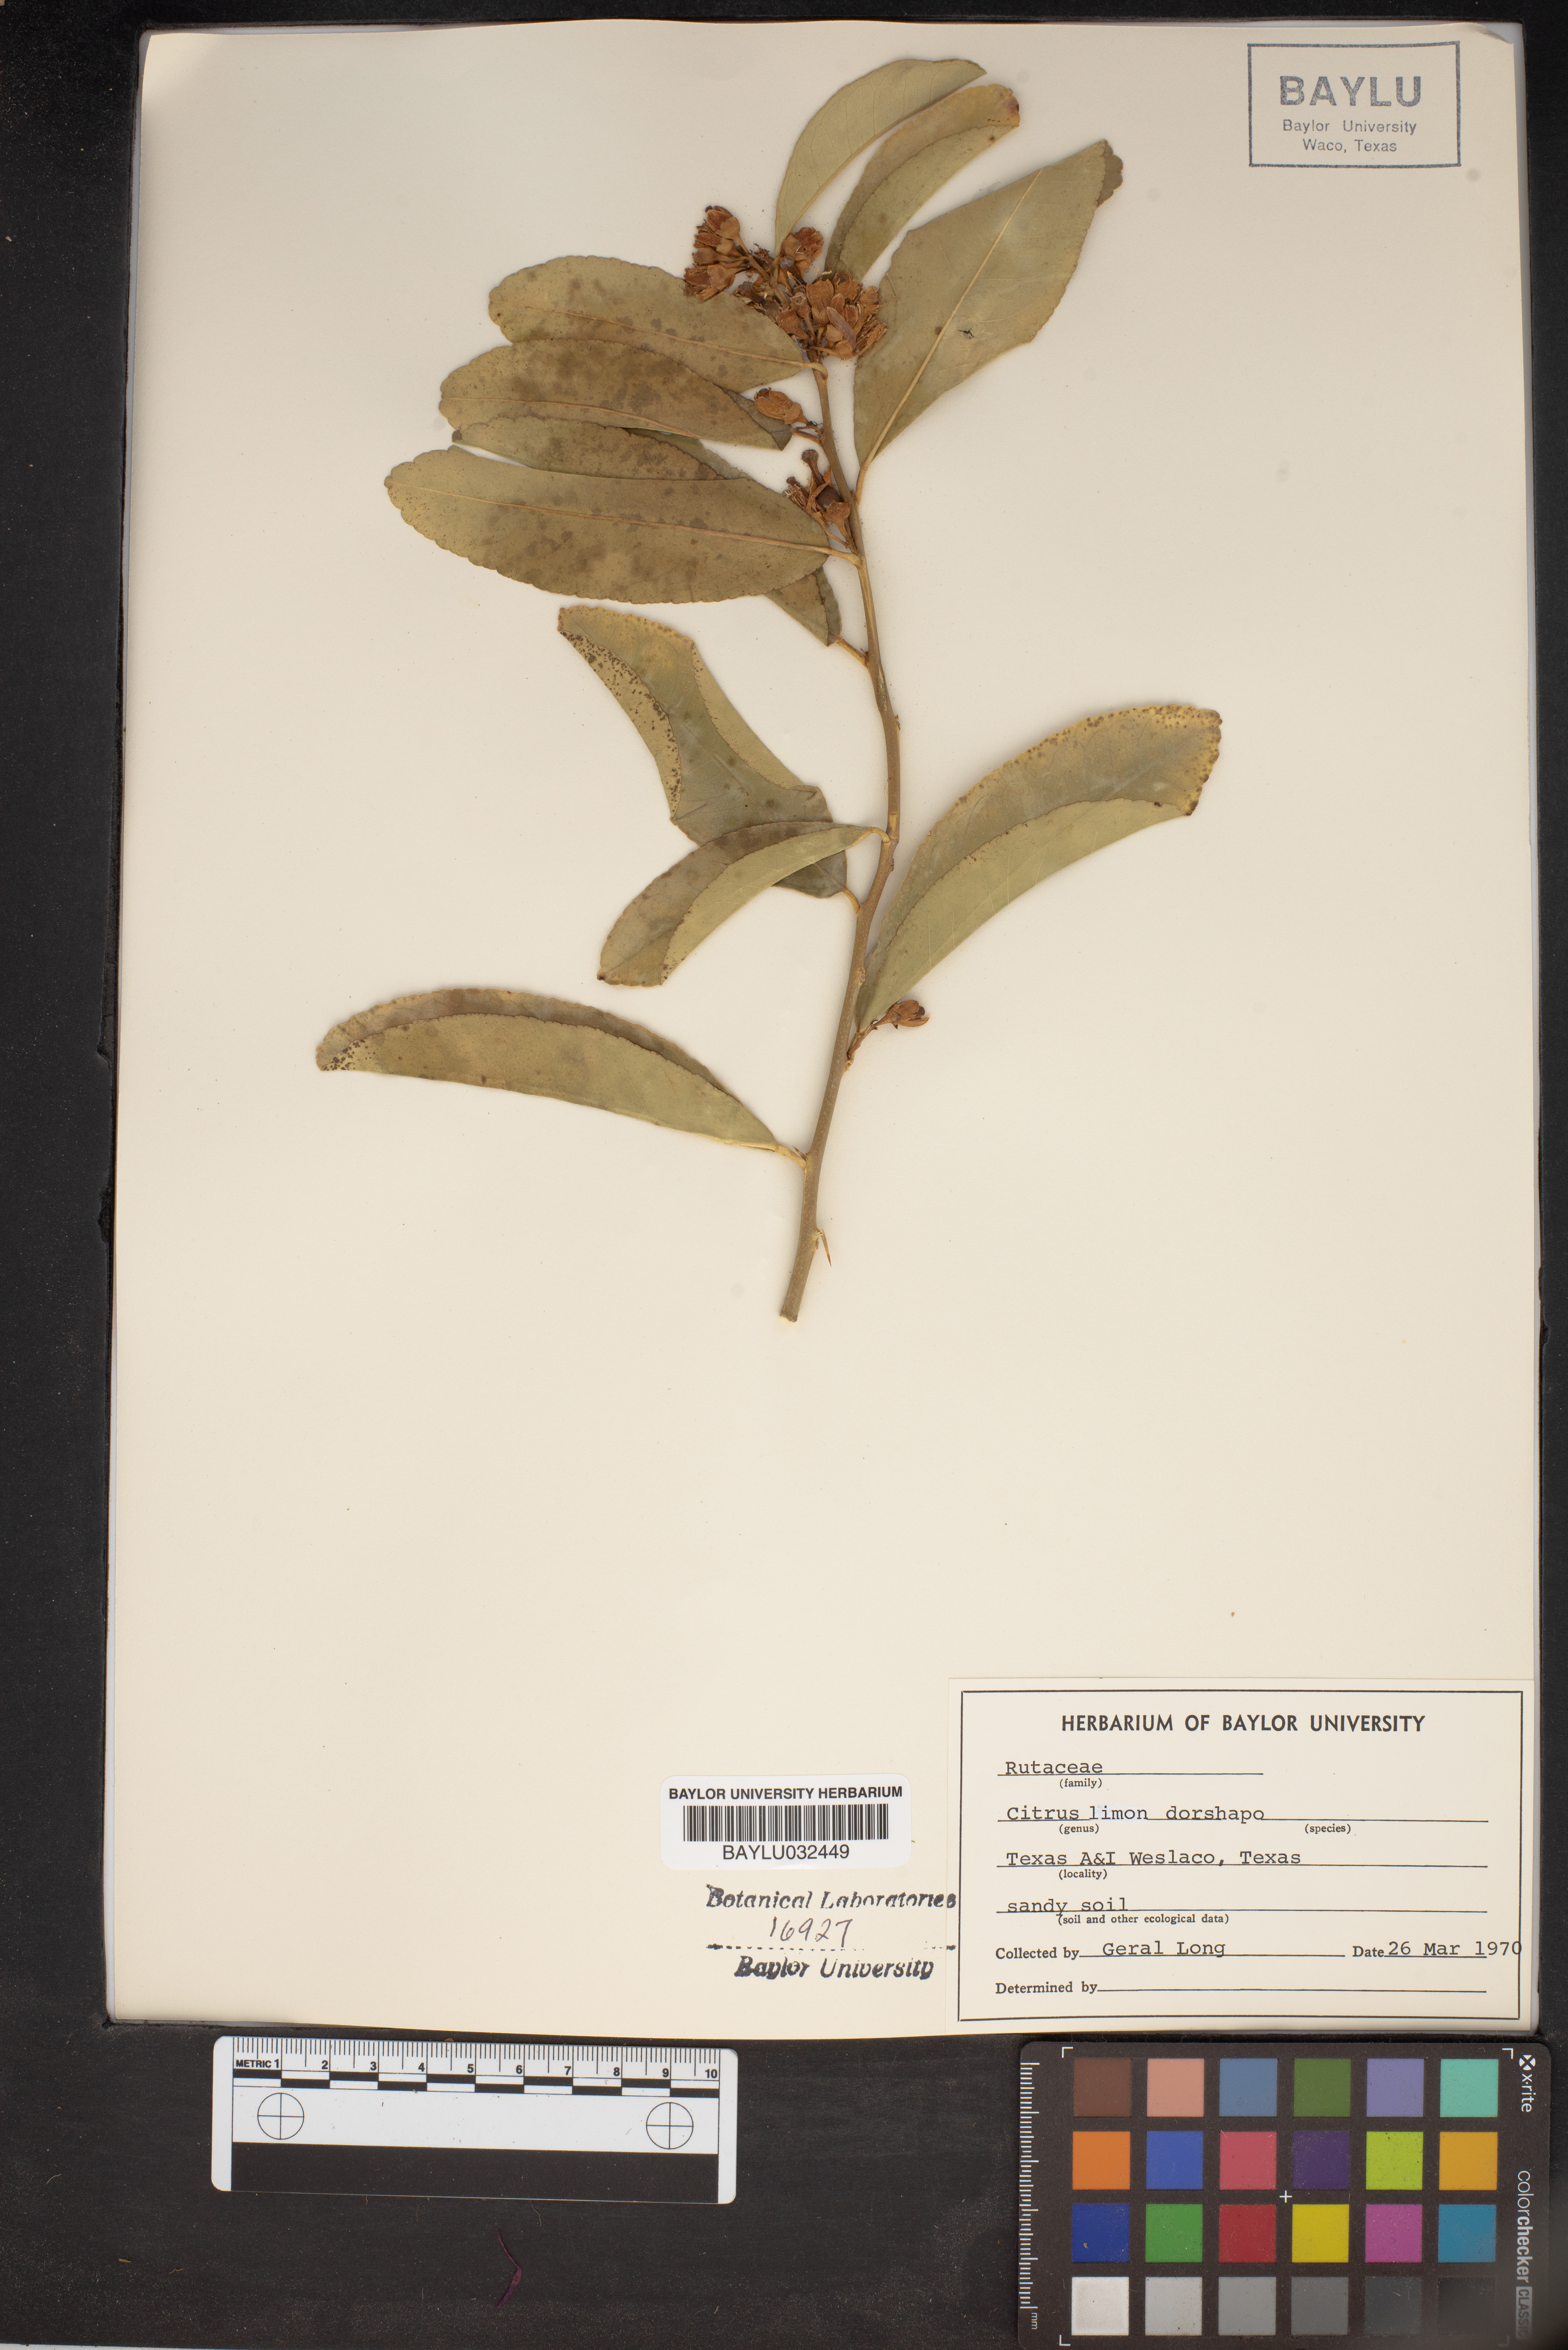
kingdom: Plantae
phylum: Tracheophyta
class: Magnoliopsida
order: Sapindales
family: Rutaceae
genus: Citrus
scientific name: Citrus limon
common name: Lemon
